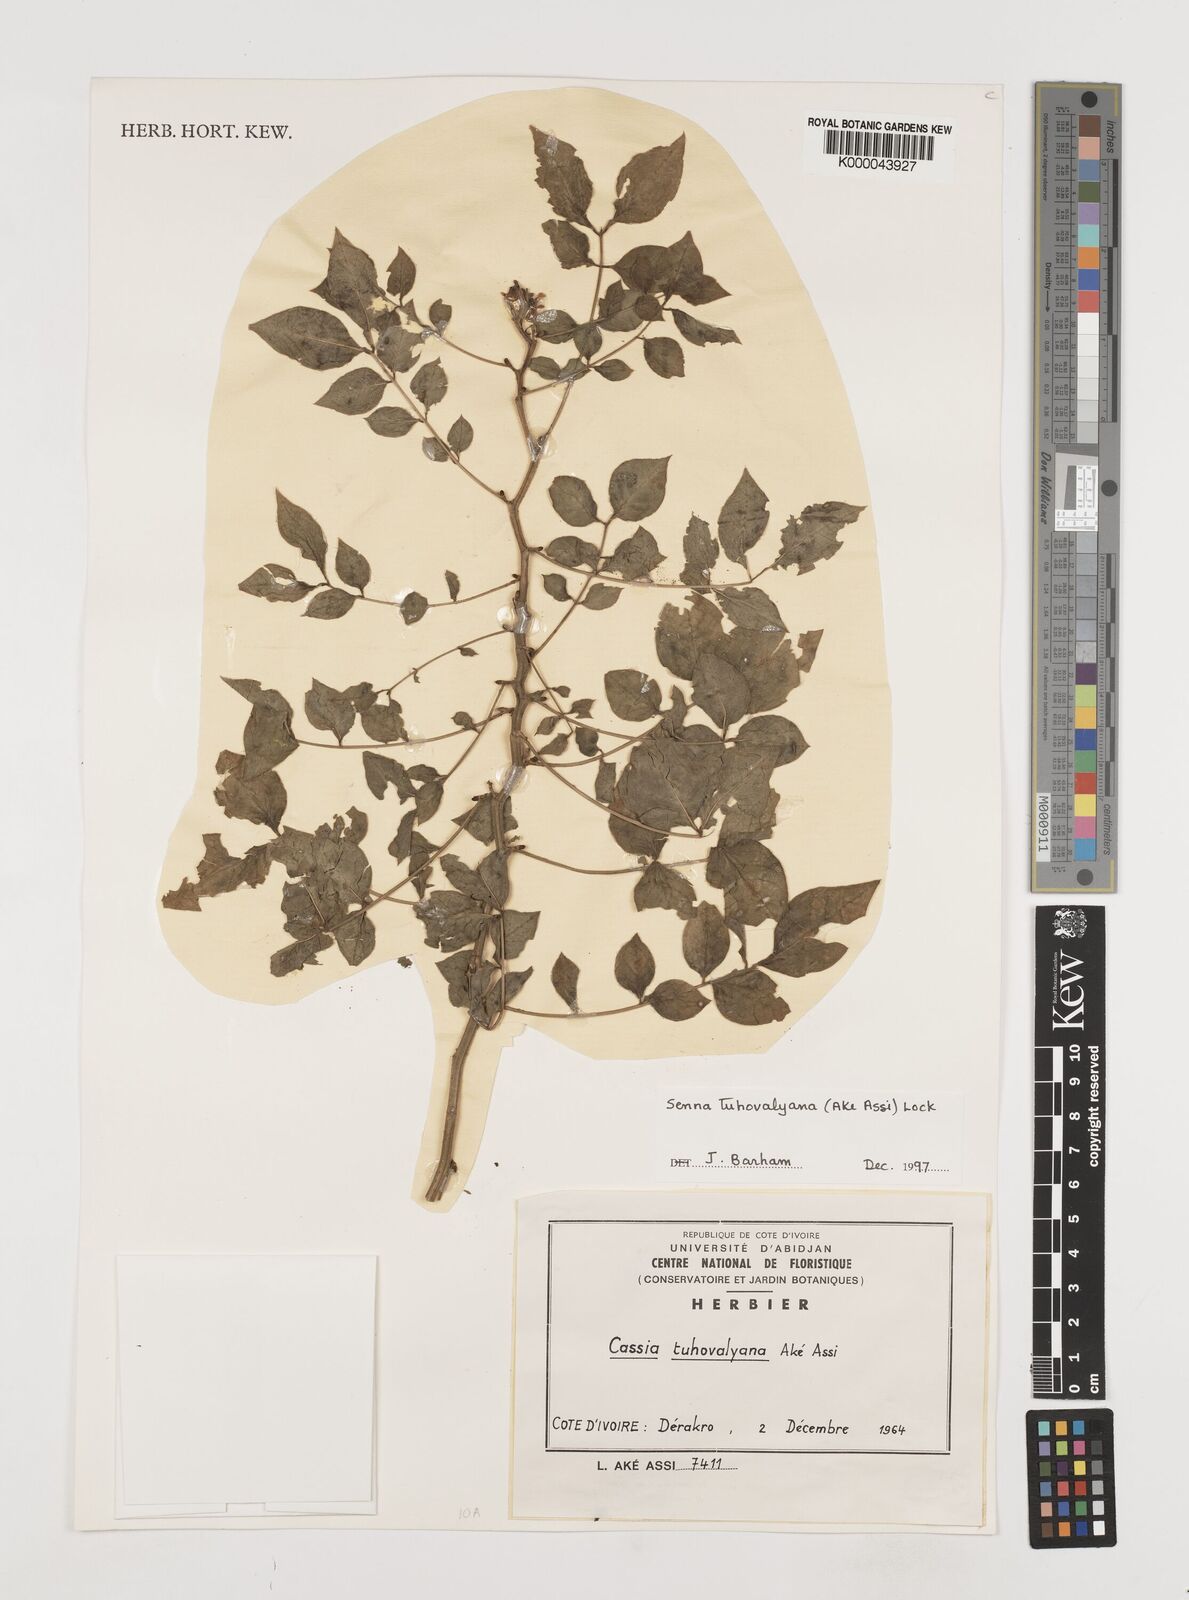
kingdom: Plantae
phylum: Tracheophyta
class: Magnoliopsida
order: Fabales
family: Fabaceae
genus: Senna
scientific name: Senna
